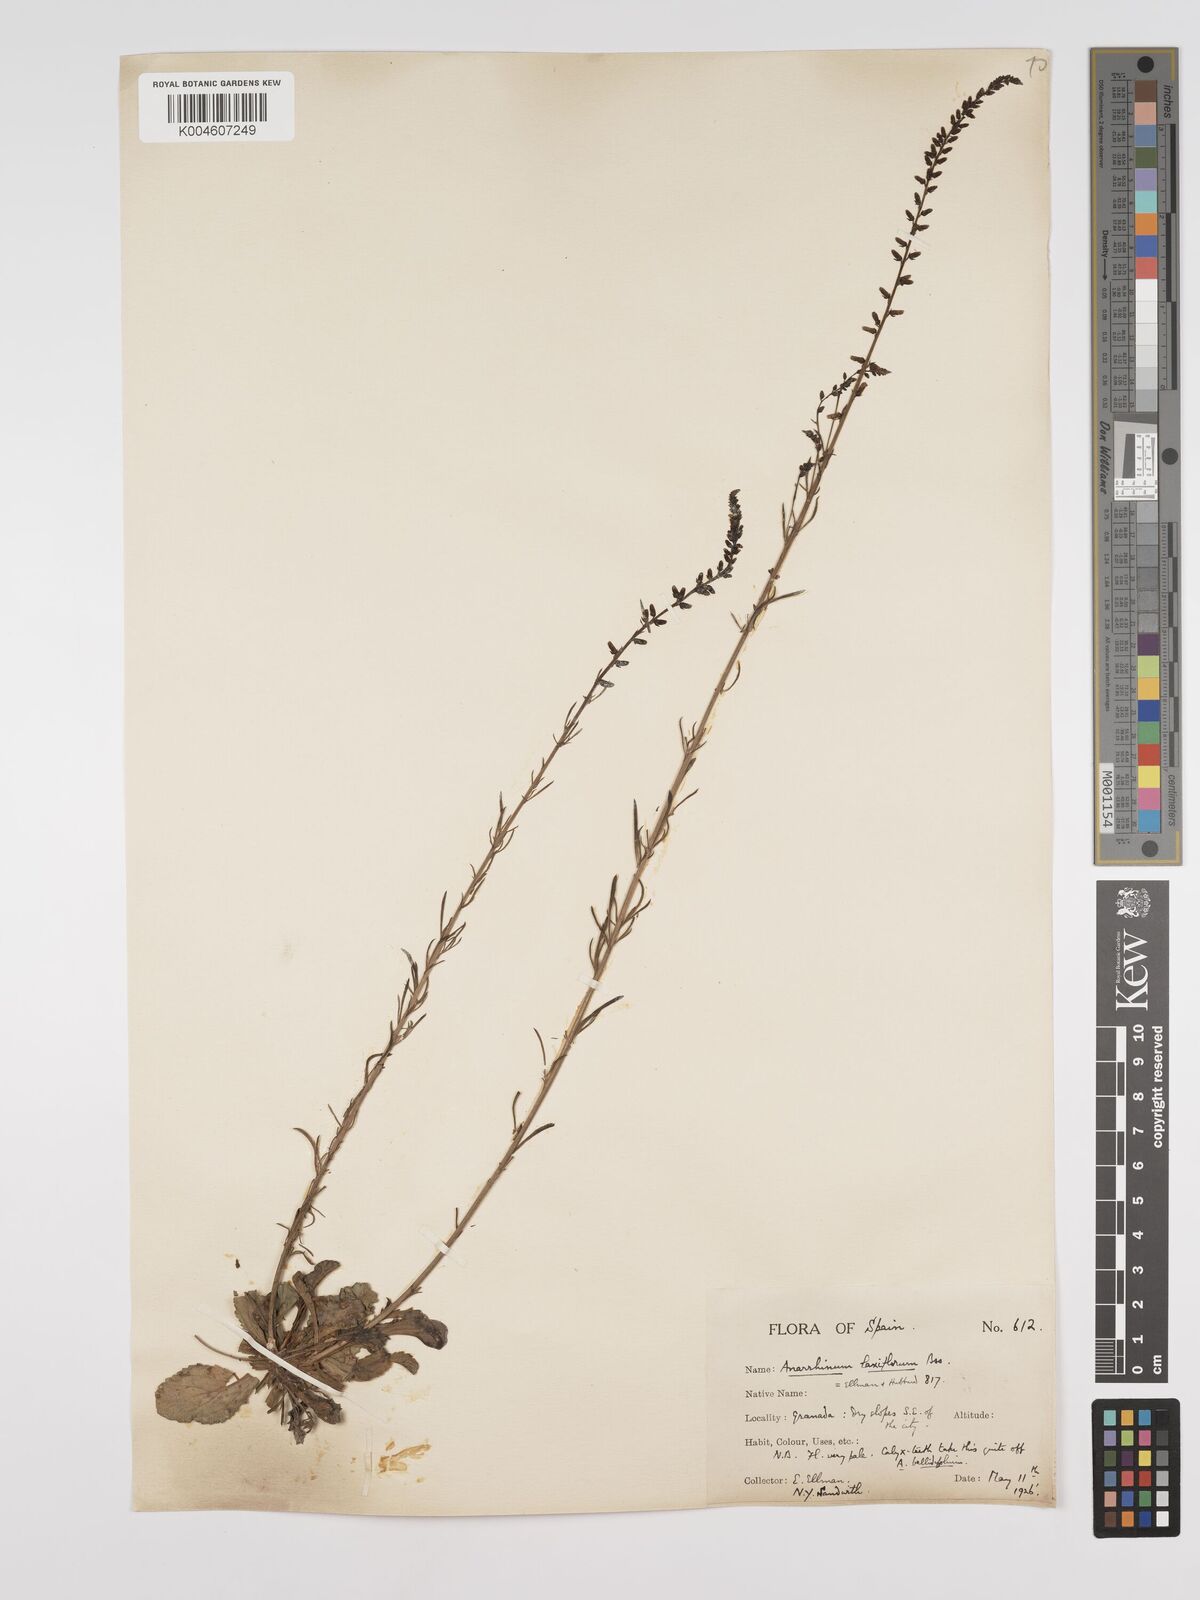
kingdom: Plantae
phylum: Tracheophyta
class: Magnoliopsida
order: Lamiales
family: Plantaginaceae
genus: Anarrhinum
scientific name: Anarrhinum laxiflorum
